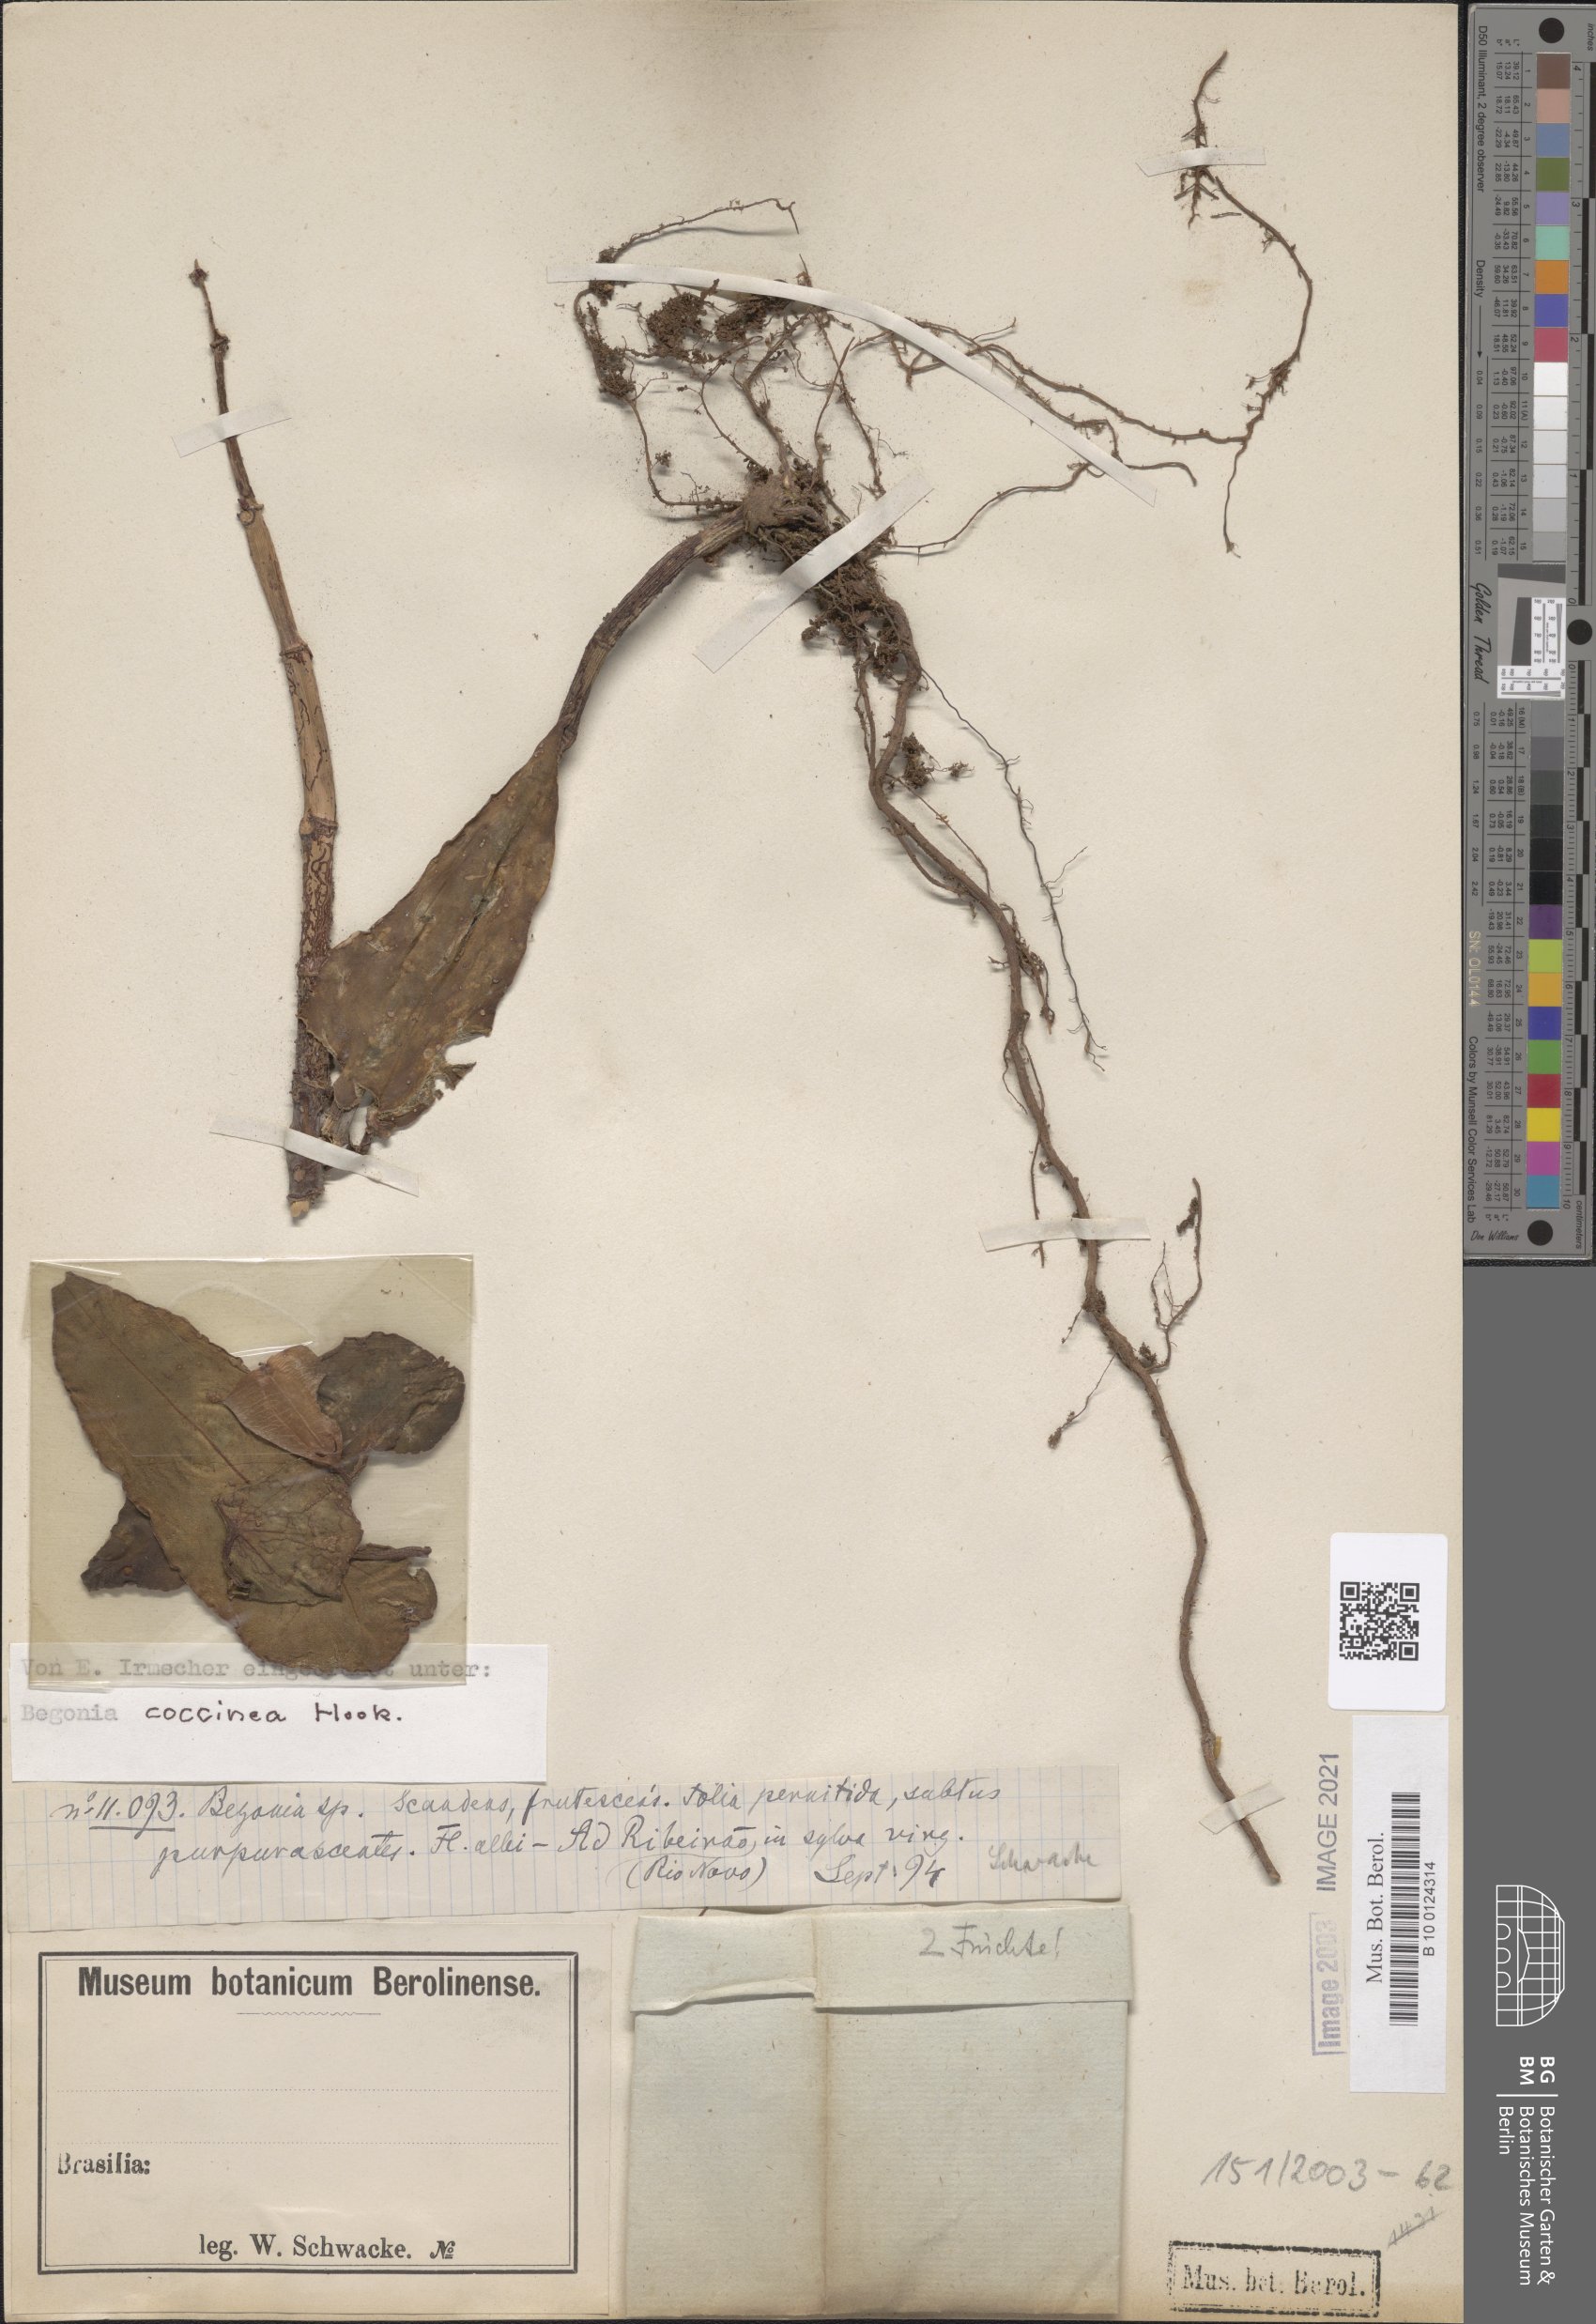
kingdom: Plantae
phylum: Tracheophyta
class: Magnoliopsida
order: Cucurbitales
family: Begoniaceae
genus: Begonia
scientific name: Begonia coccinea
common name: Angel-wing begonia
